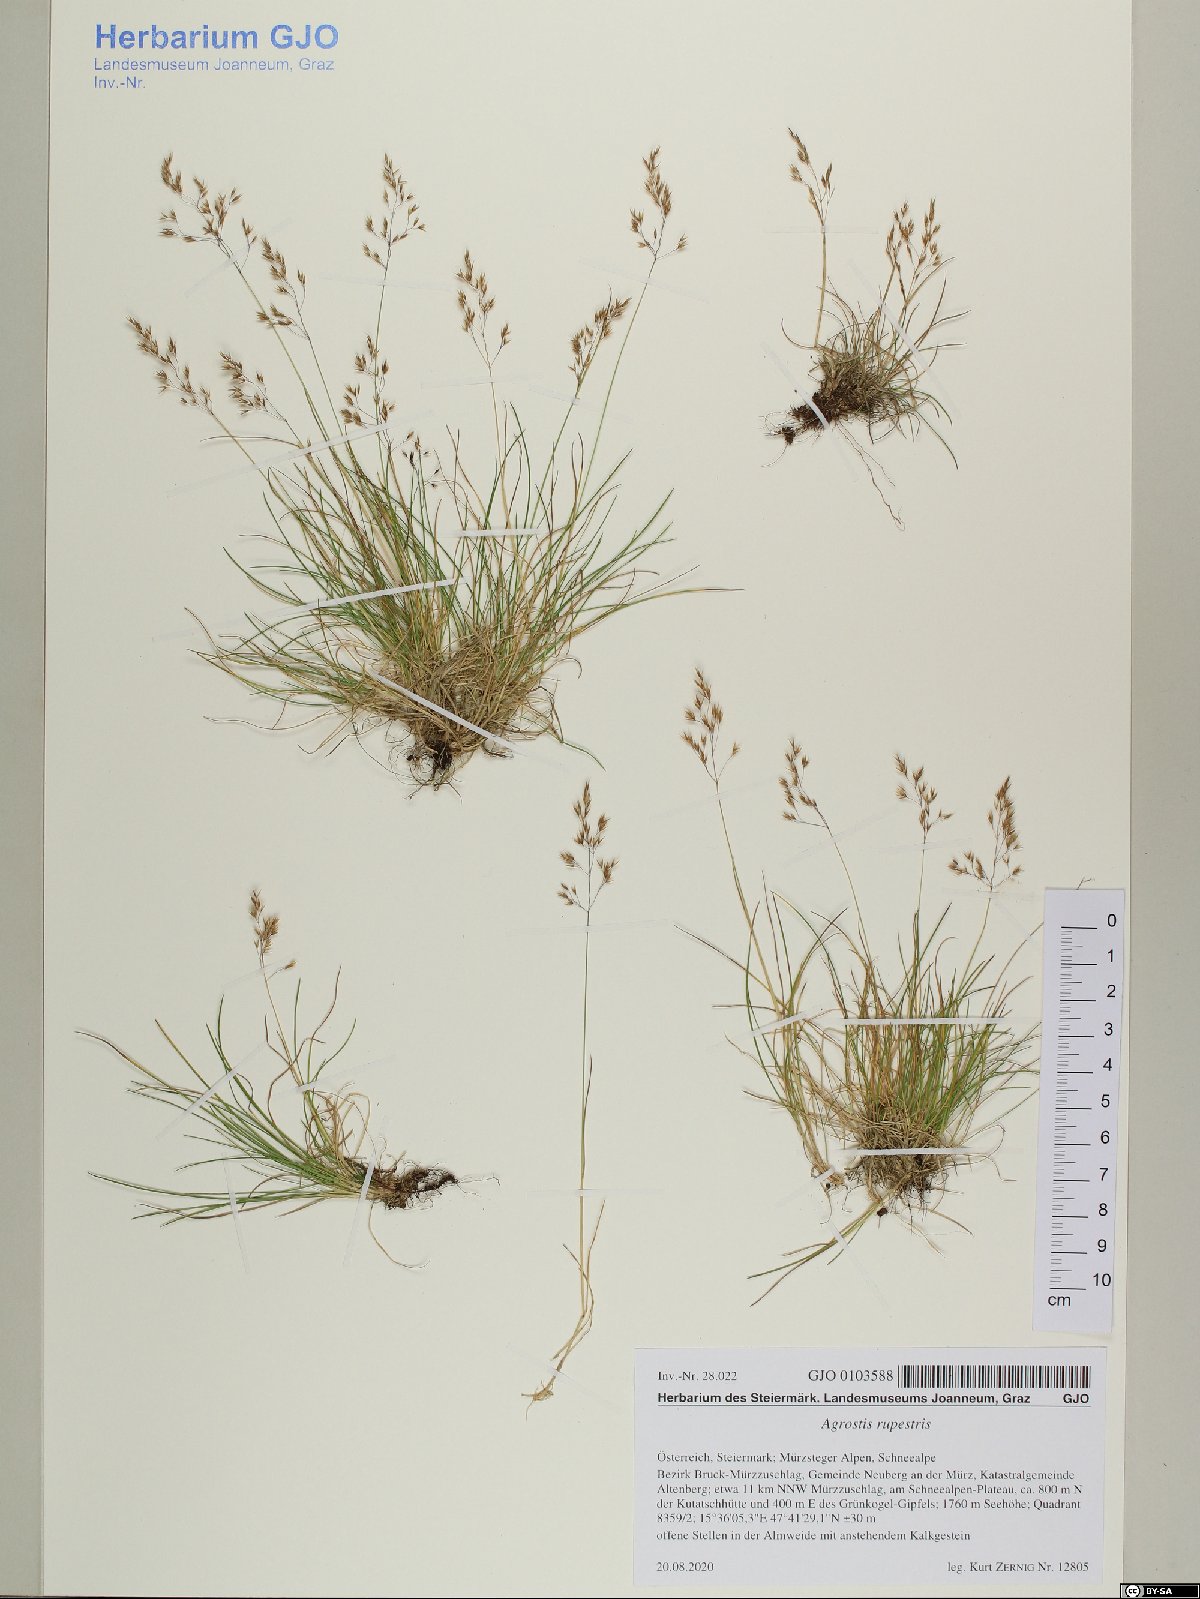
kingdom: Plantae
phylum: Tracheophyta
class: Liliopsida
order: Poales
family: Poaceae
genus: Agrostis
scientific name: Agrostis rupestris
